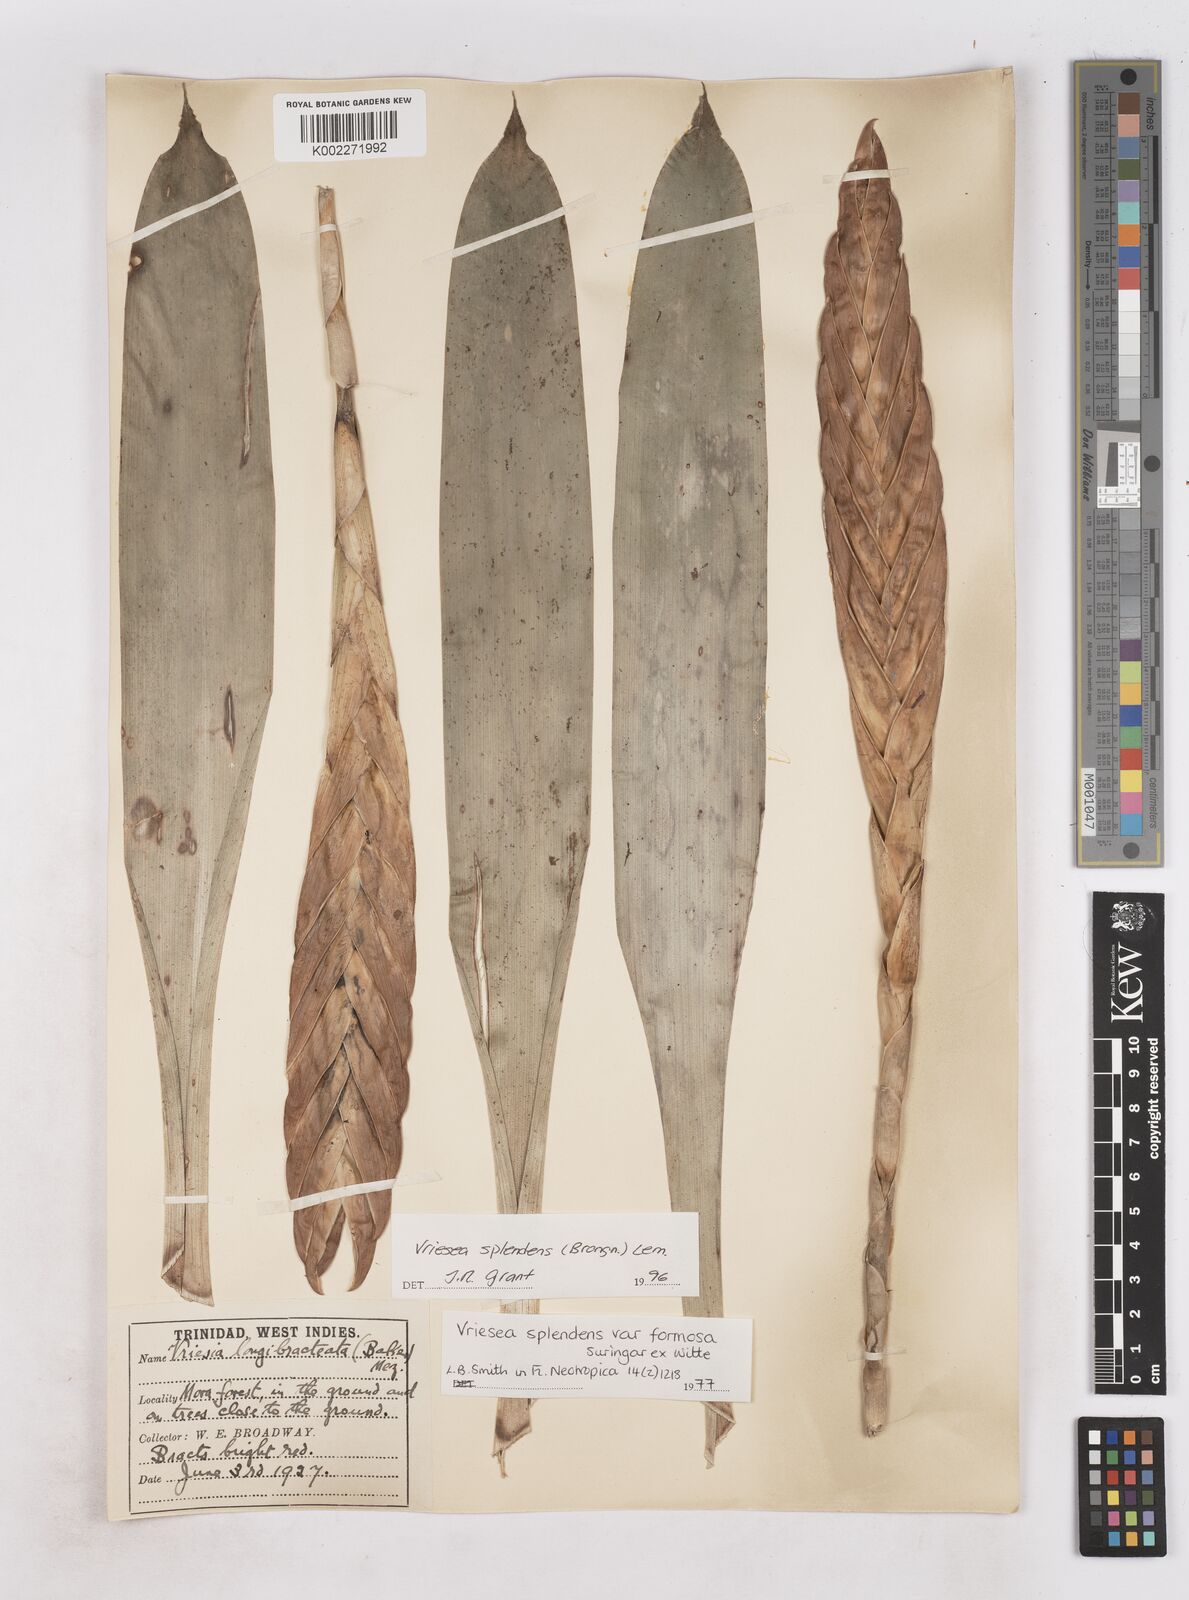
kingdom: Plantae
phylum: Tracheophyta
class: Liliopsida
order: Poales
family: Bromeliaceae
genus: Lutheria
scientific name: Lutheria splendens
